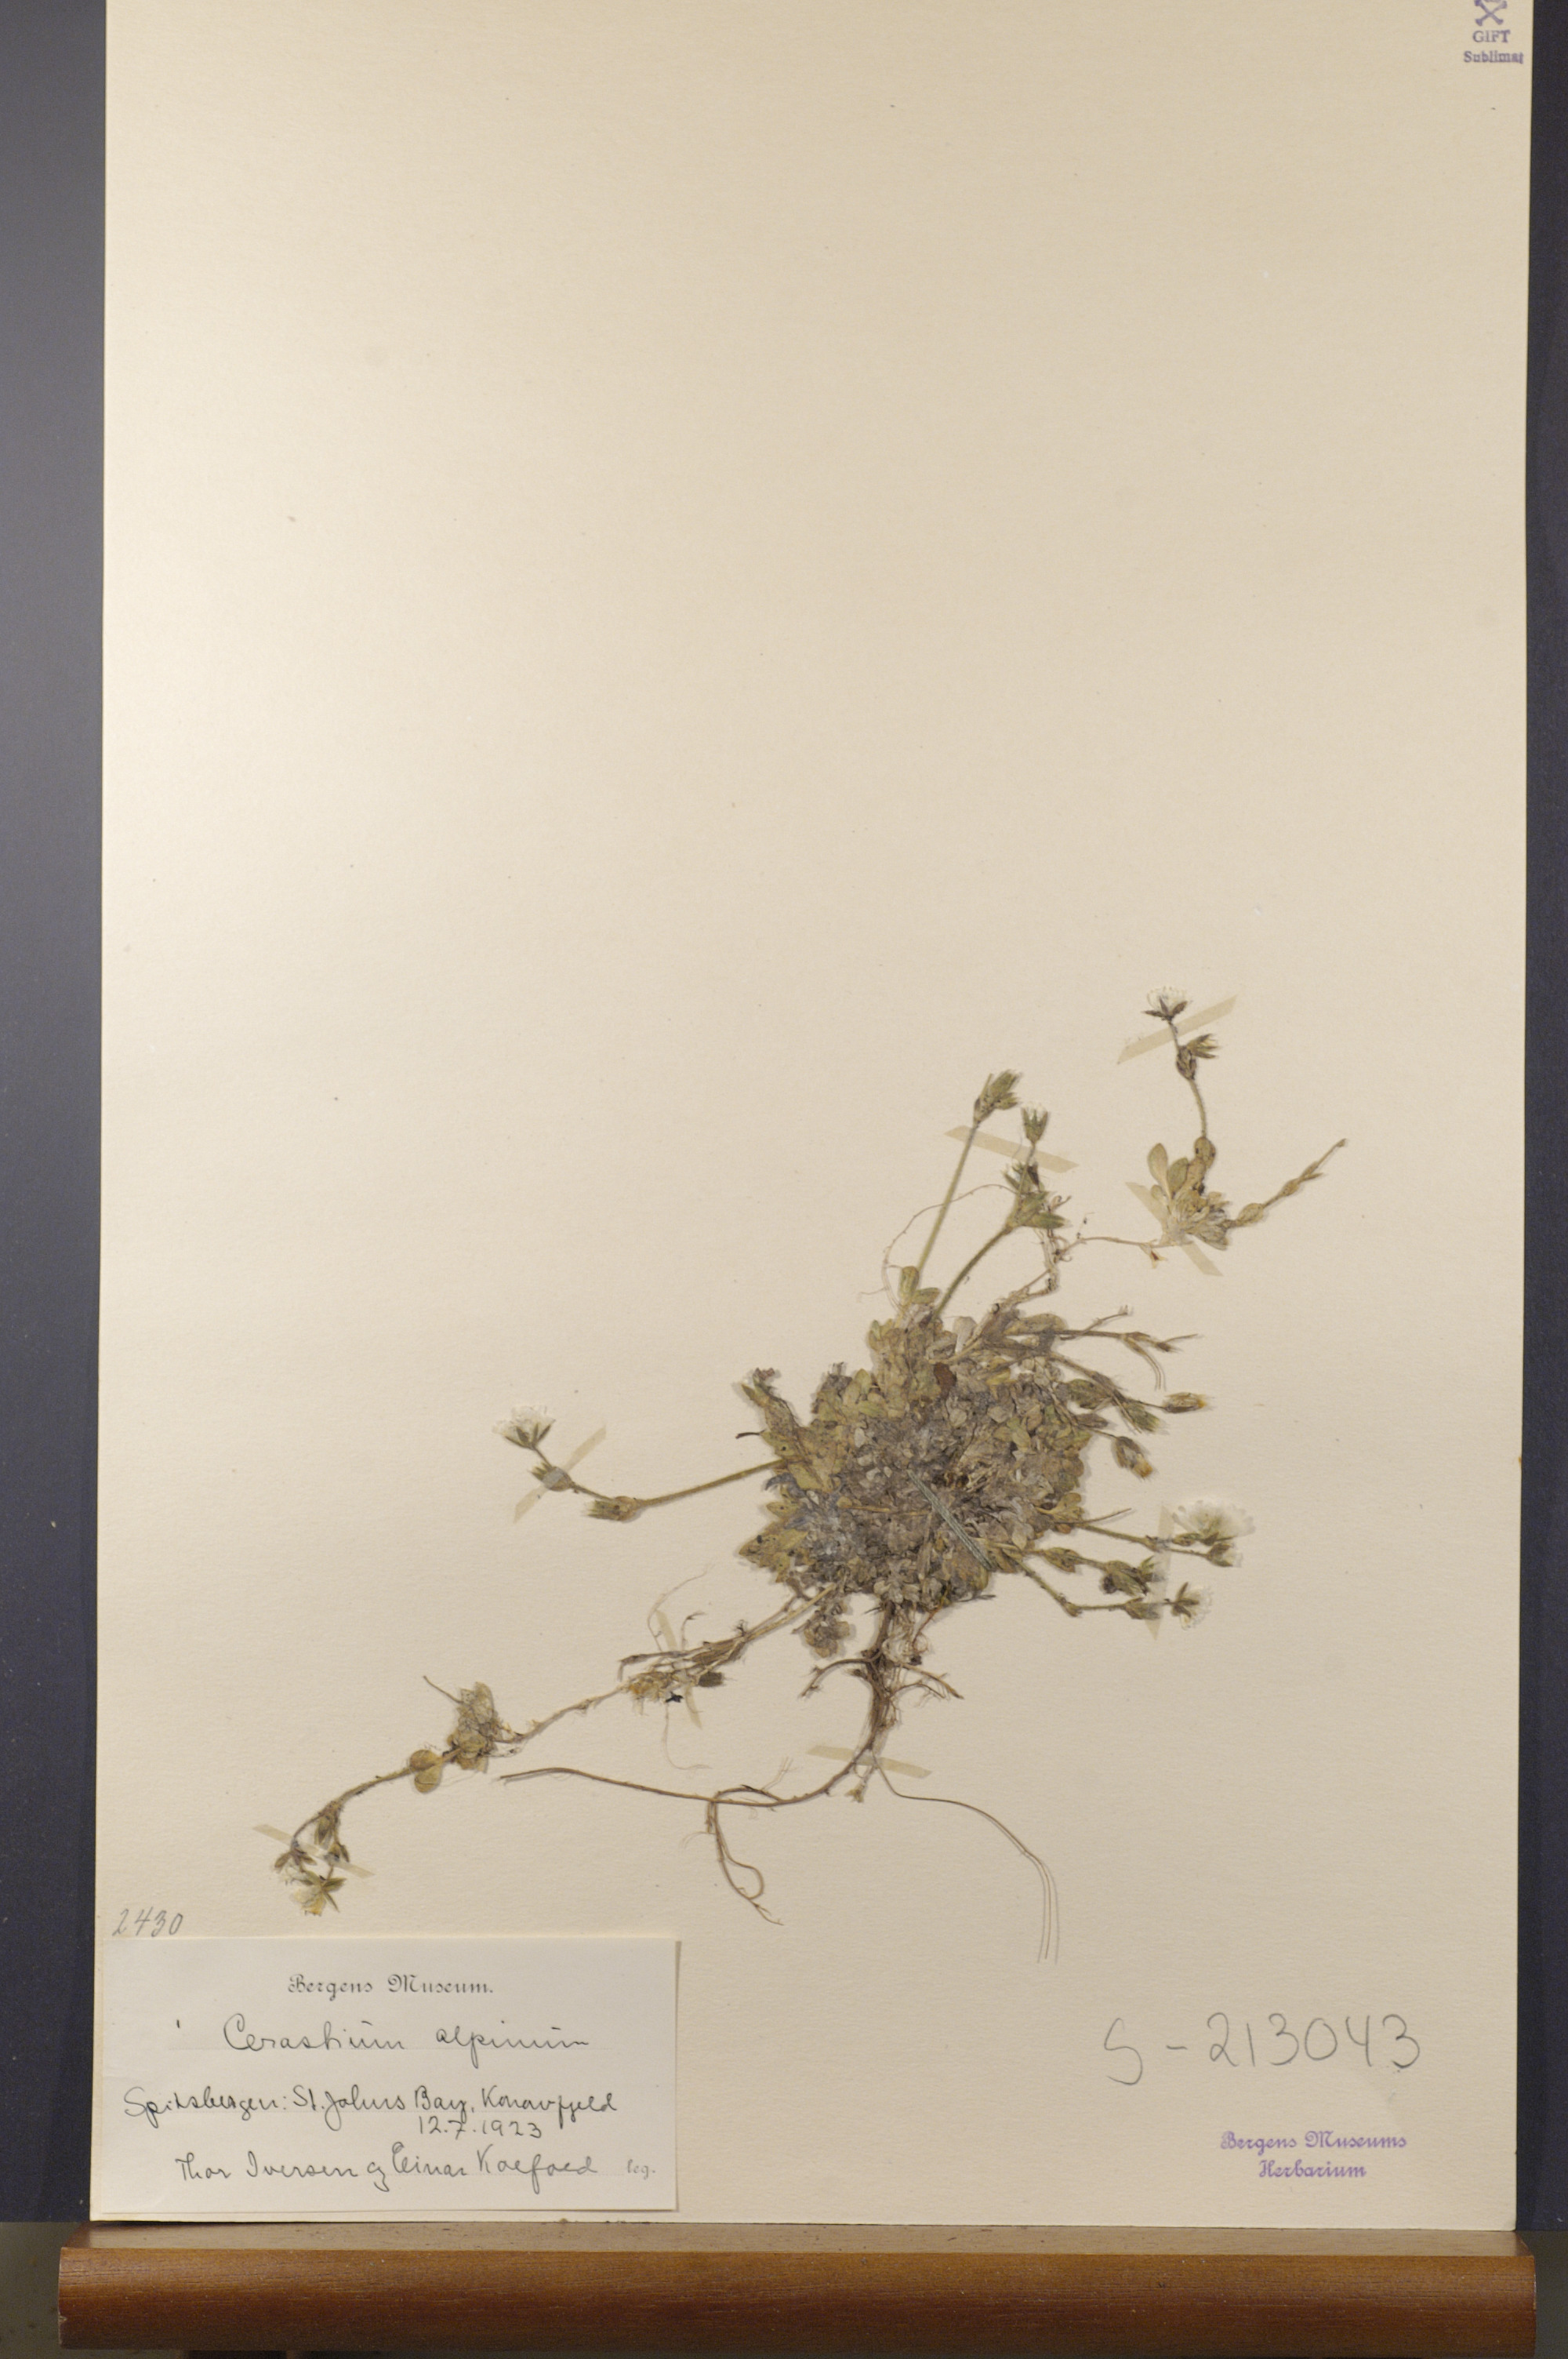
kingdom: Plantae
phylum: Tracheophyta
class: Magnoliopsida
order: Caryophyllales
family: Caryophyllaceae
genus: Cerastium
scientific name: Cerastium alpinum
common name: Alpine mouse-ear
